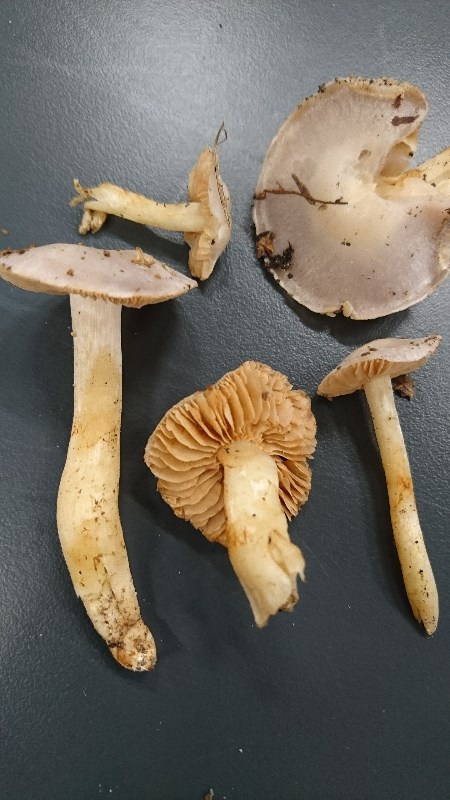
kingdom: Fungi
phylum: Basidiomycota
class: Agaricomycetes
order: Agaricales
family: Cortinariaceae
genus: Thaxterogaster
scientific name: Thaxterogaster
